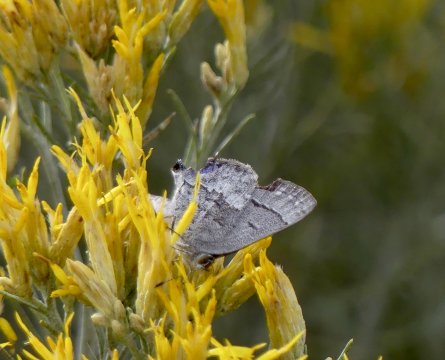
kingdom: Animalia
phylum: Arthropoda
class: Insecta
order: Lepidoptera
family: Lycaenidae
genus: Ministrymon
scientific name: Ministrymon leda
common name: Leda Ministreak
